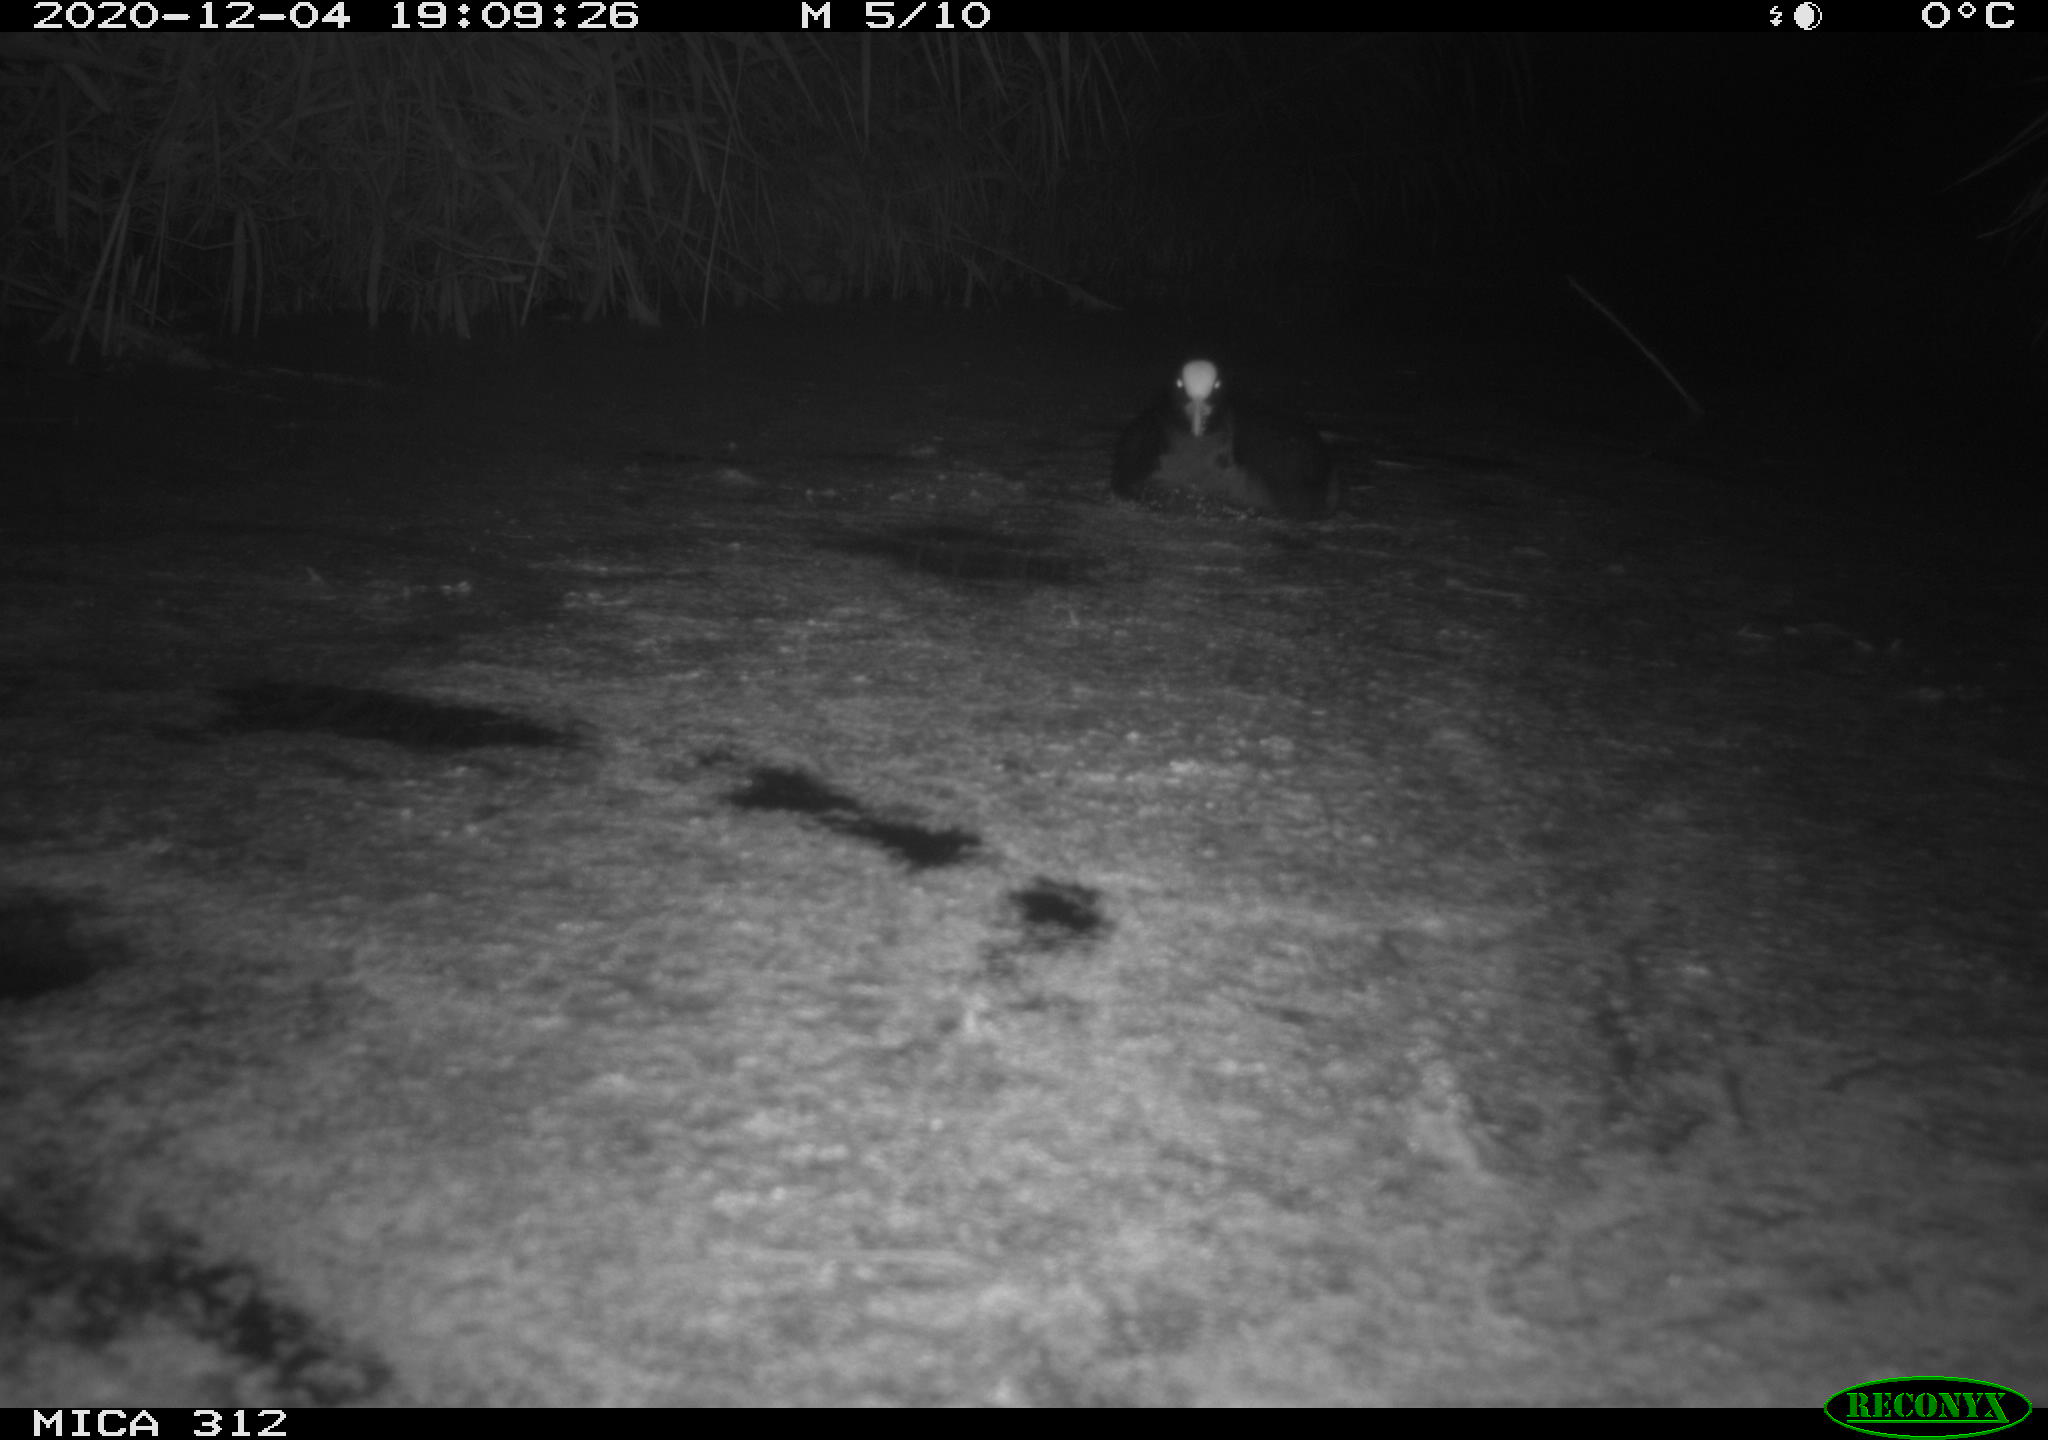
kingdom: Animalia
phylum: Chordata
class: Aves
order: Gruiformes
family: Rallidae
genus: Fulica
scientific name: Fulica atra
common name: Eurasian coot
